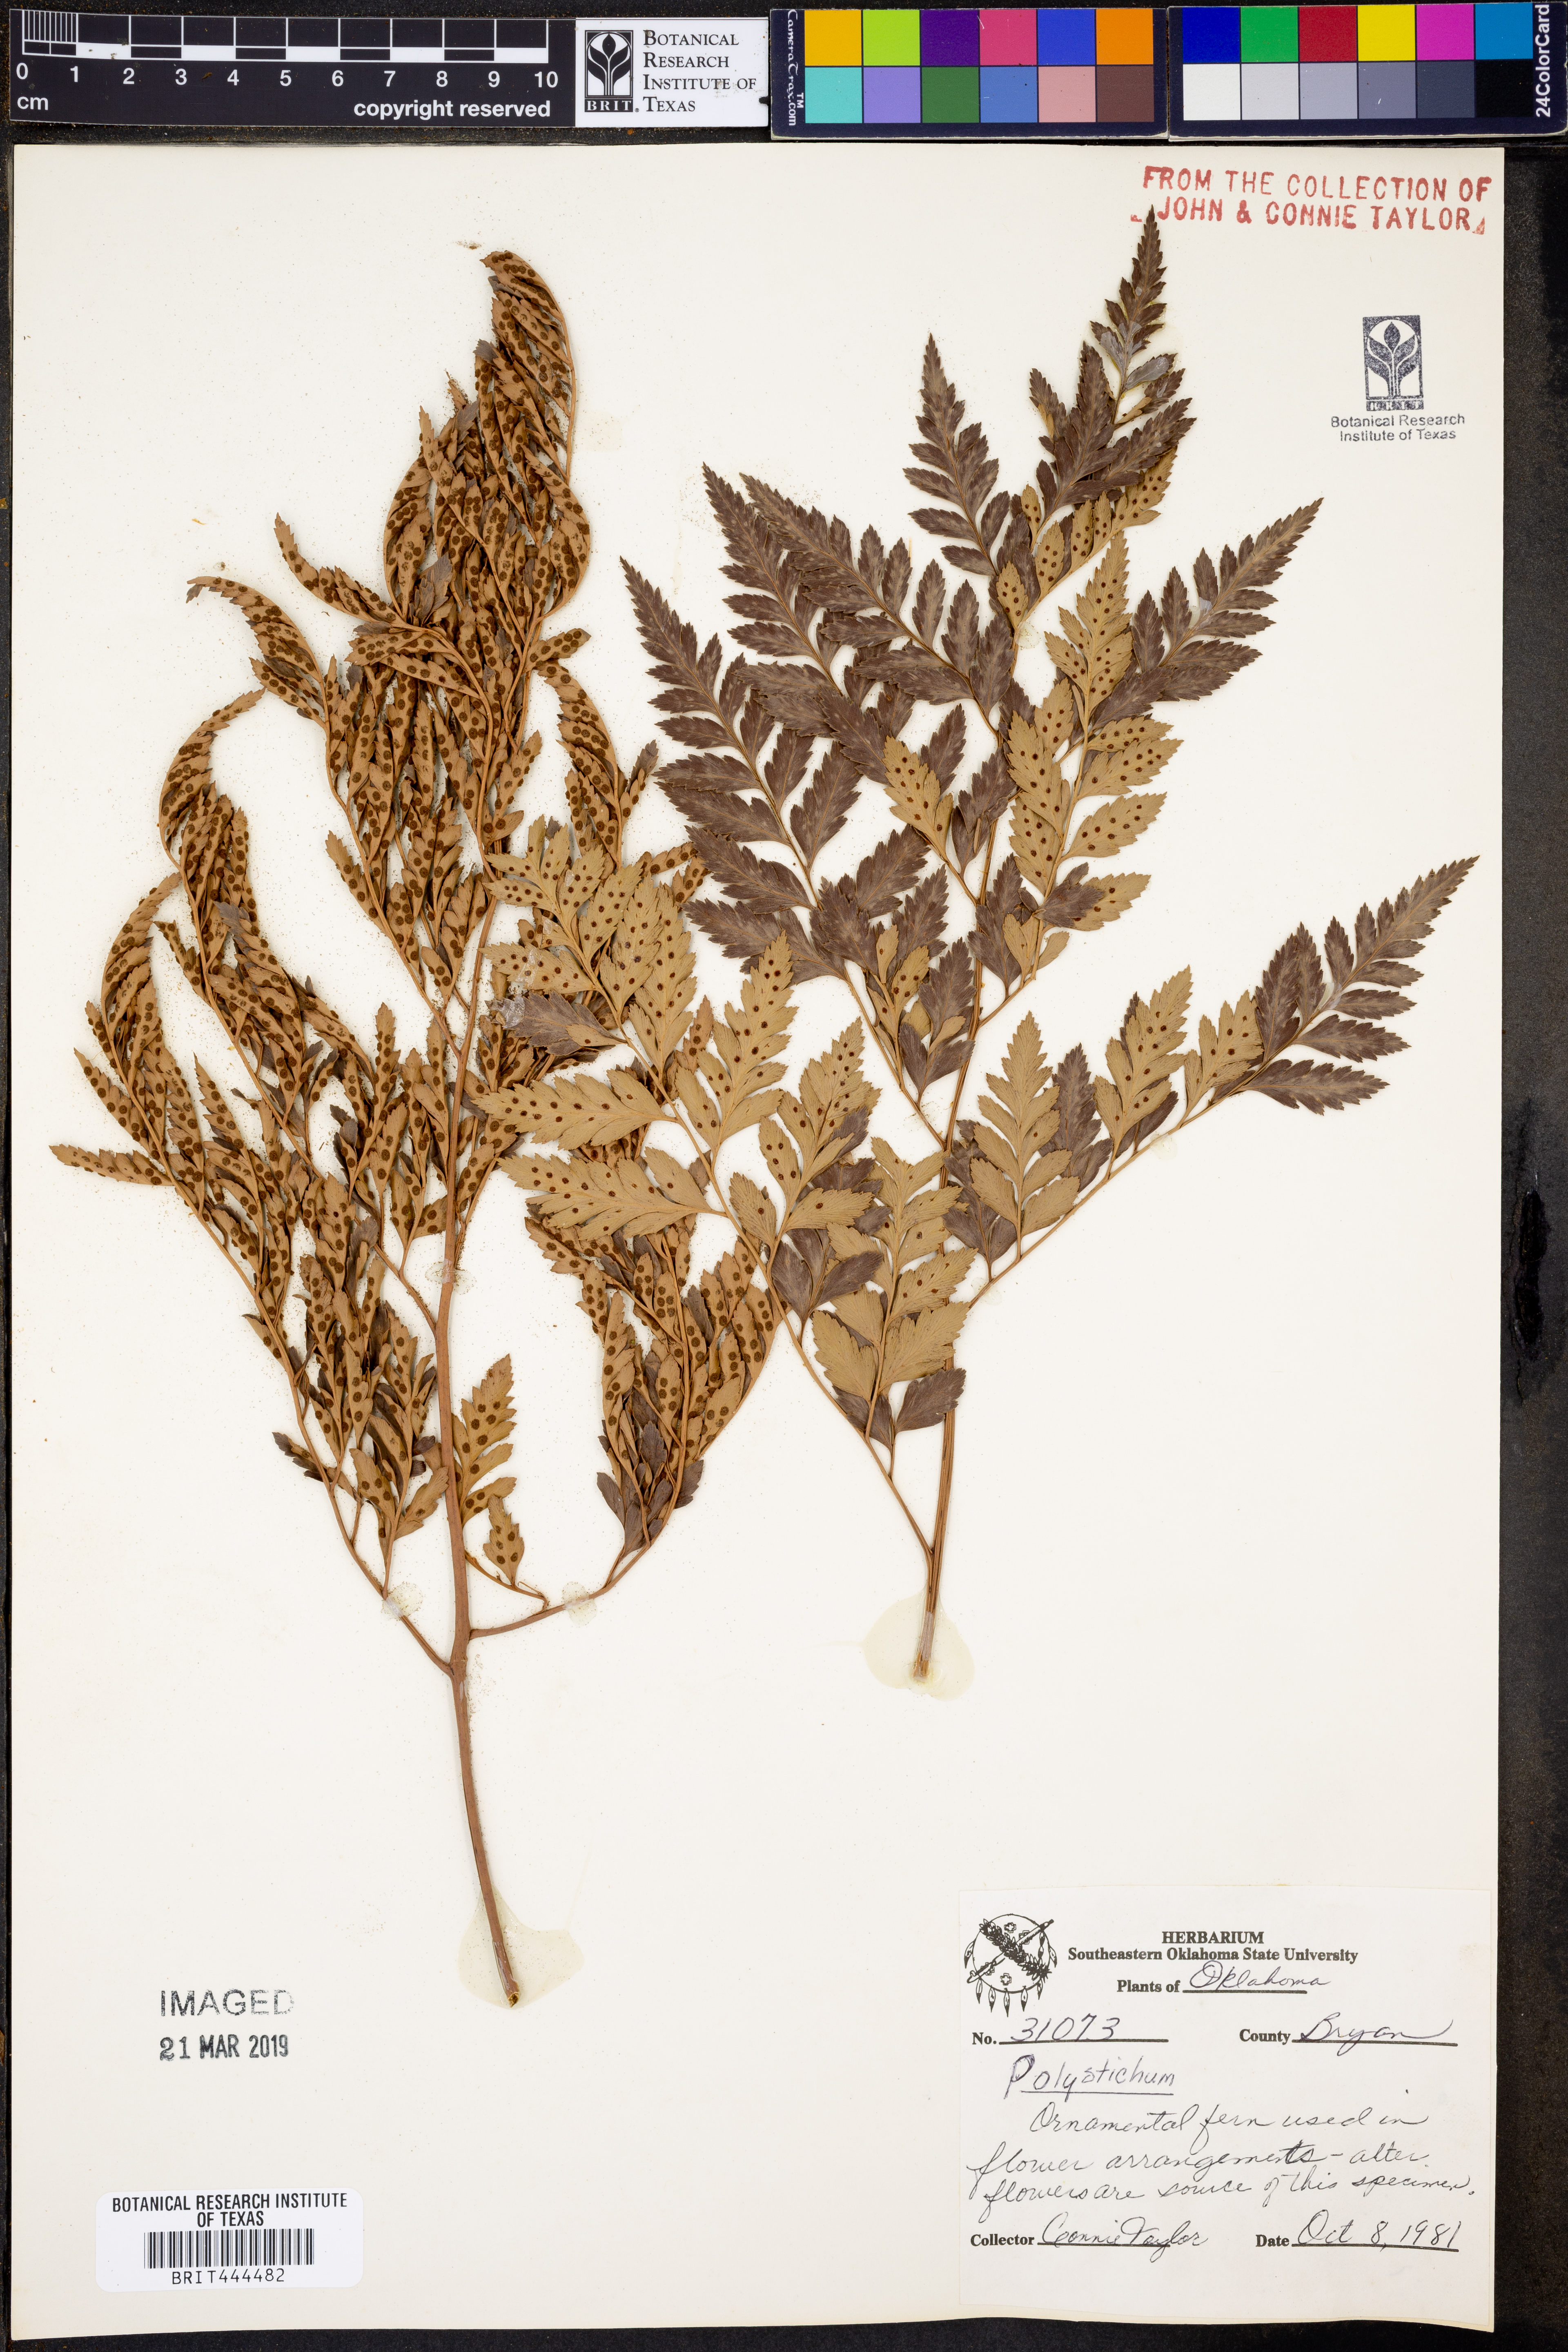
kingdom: Plantae
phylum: Tracheophyta
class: Polypodiopsida
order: Polypodiales
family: Dryopteridaceae
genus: Polystichum
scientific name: Polystichum
